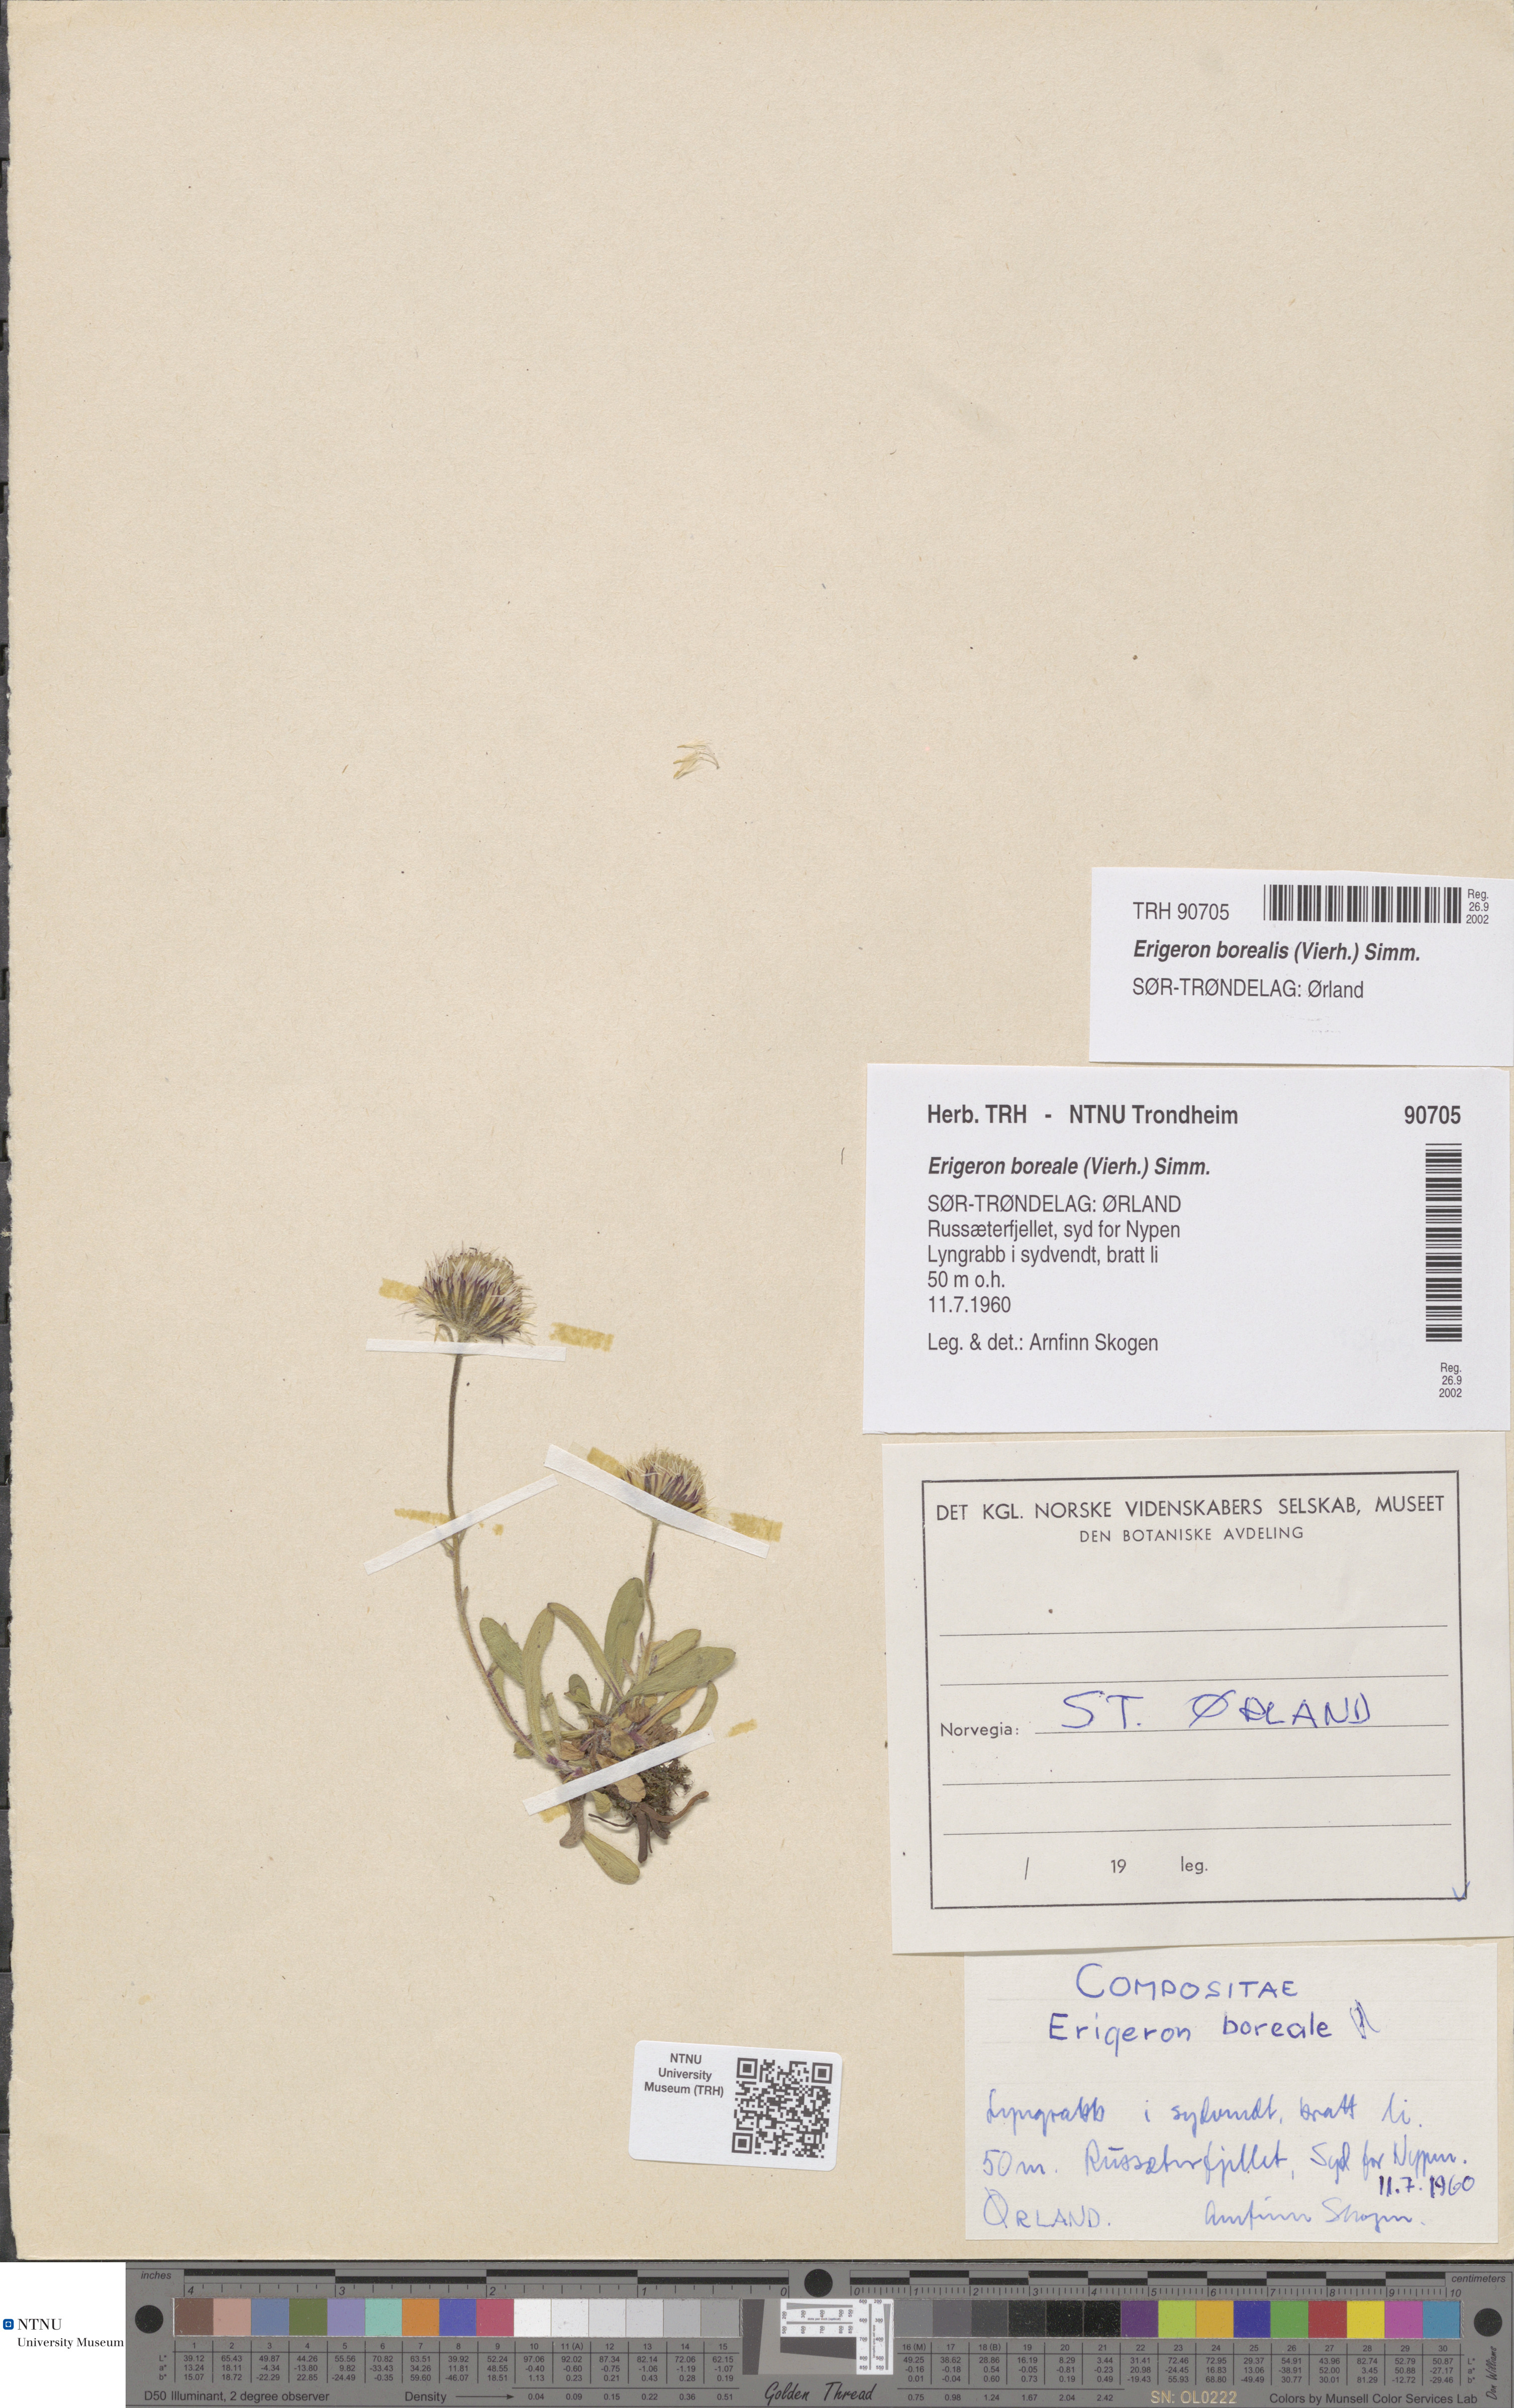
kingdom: Plantae
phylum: Tracheophyta
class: Magnoliopsida
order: Asterales
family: Asteraceae
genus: Erigeron
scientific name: Erigeron borealis
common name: Alpine fleabane
